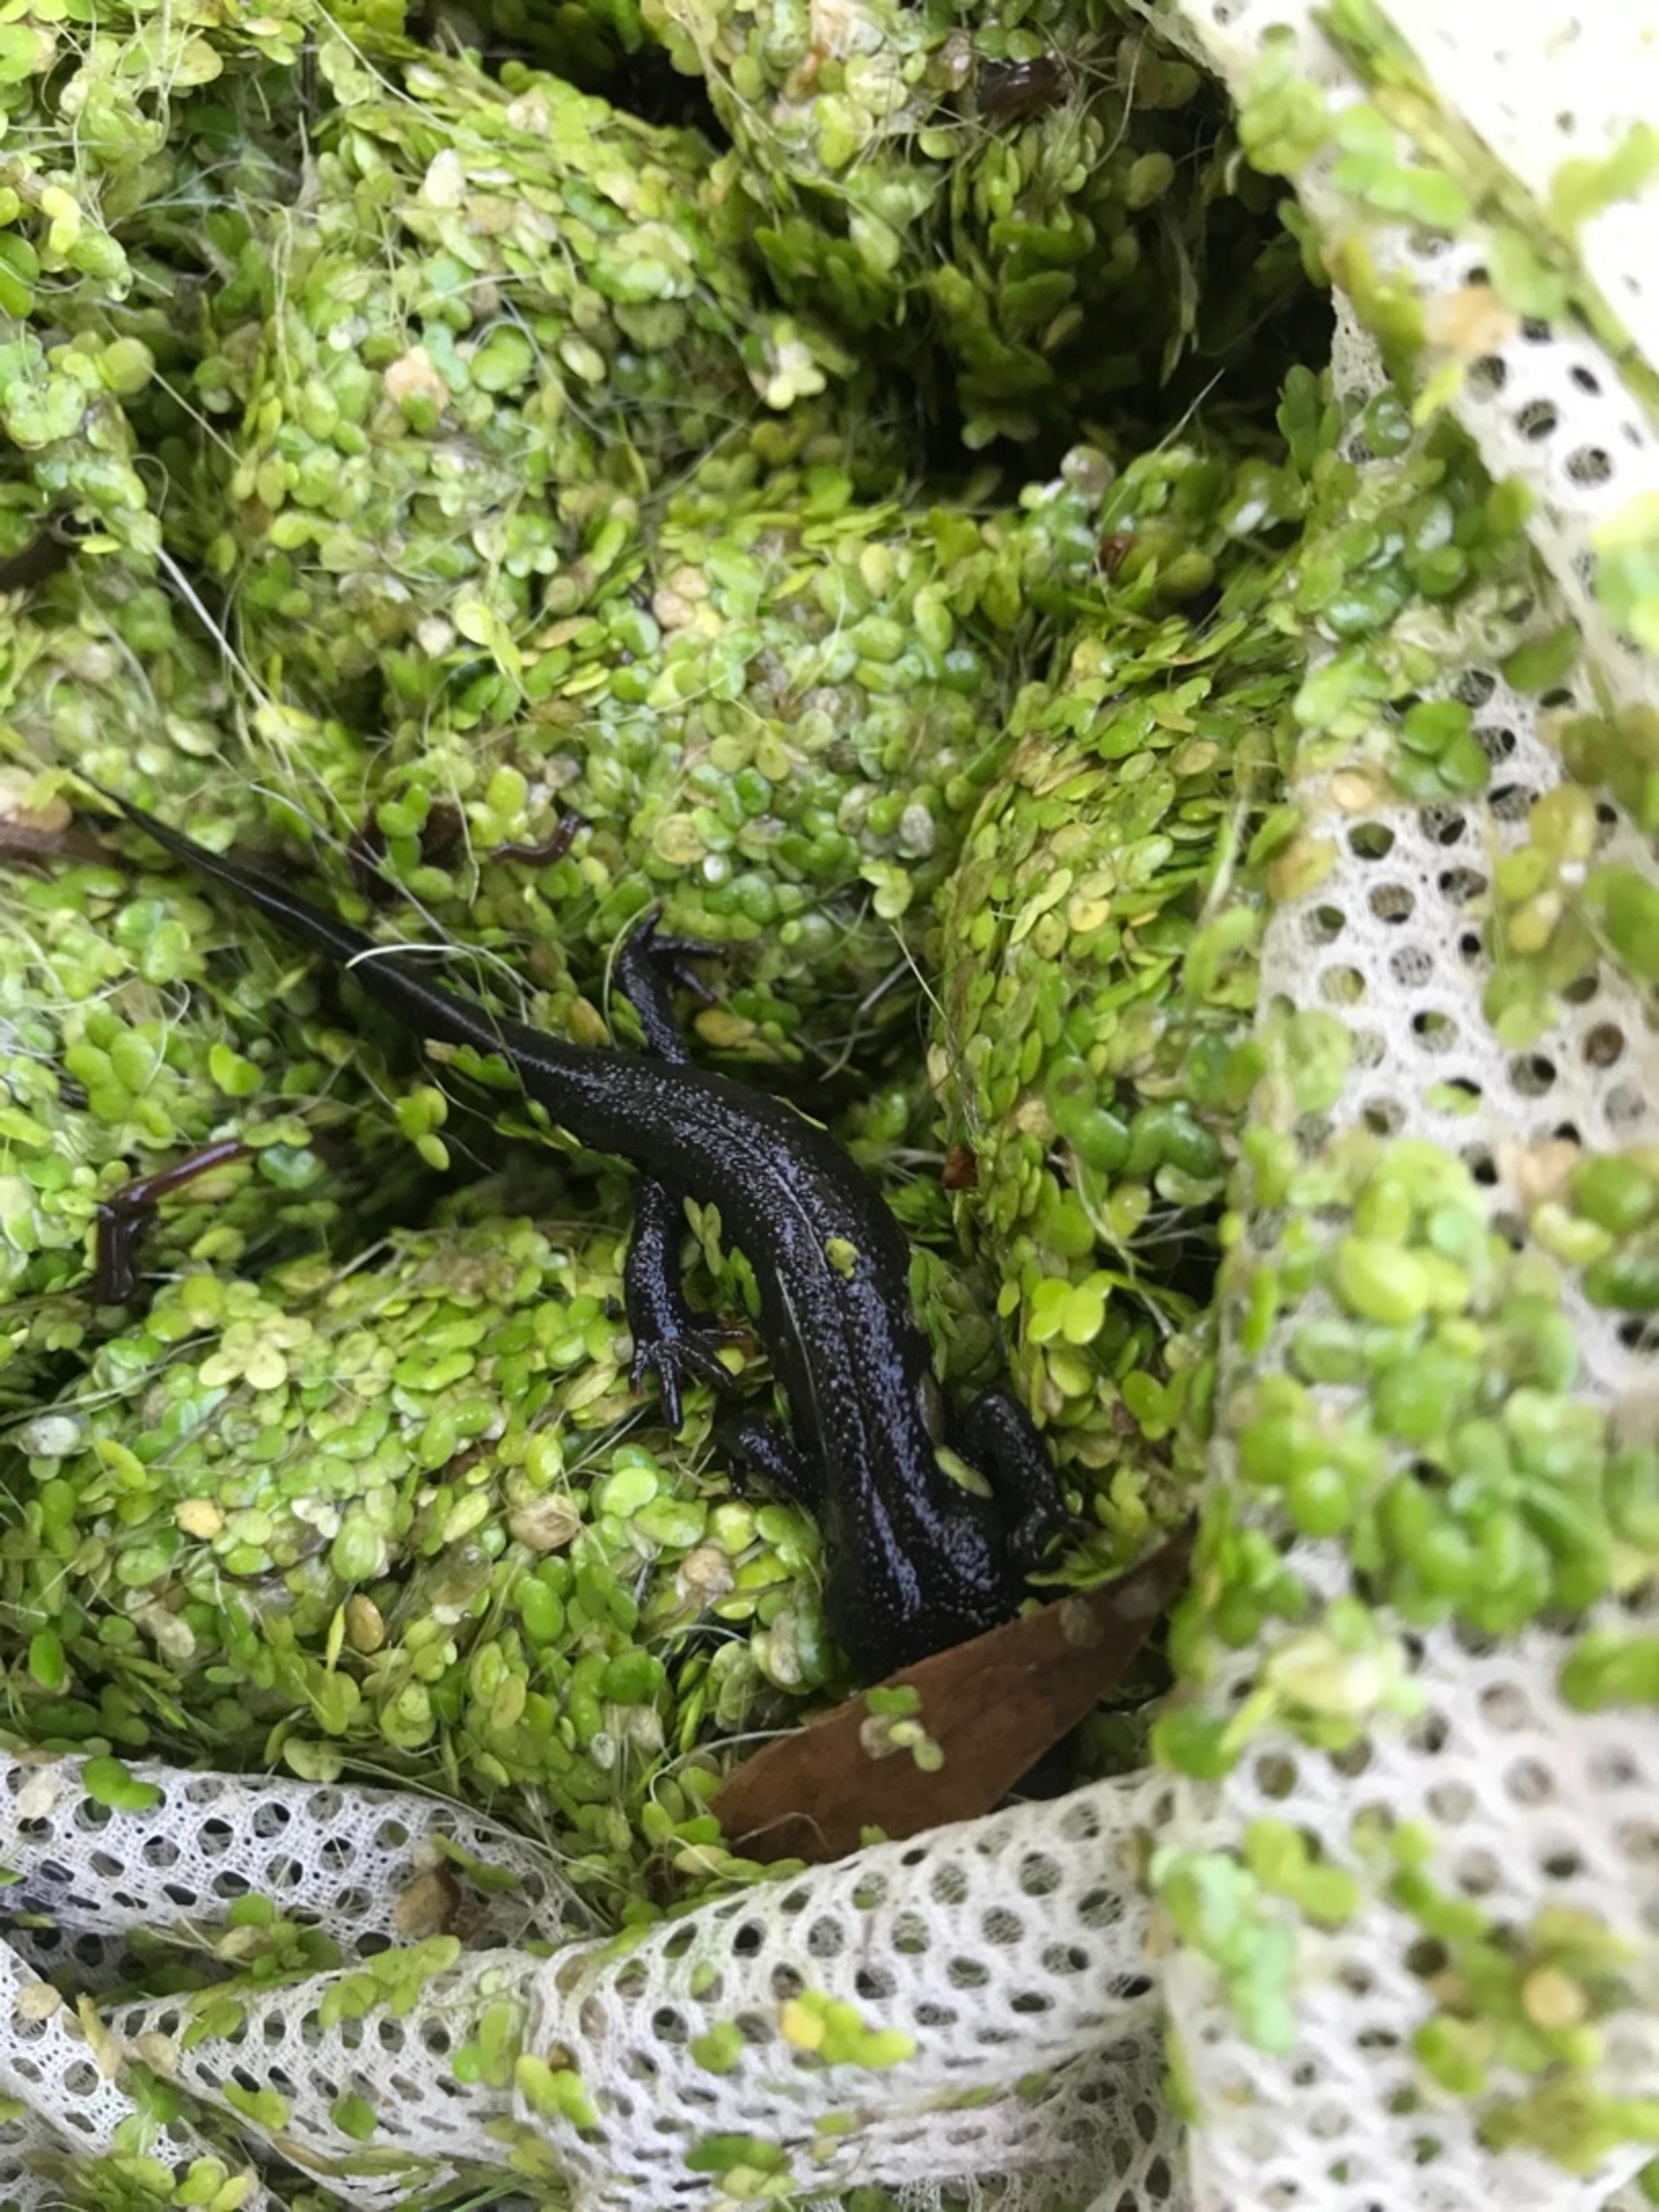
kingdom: Animalia
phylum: Chordata
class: Amphibia
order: Caudata
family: Salamandridae
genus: Triturus
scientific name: Triturus cristatus
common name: Stor vandsalamander
